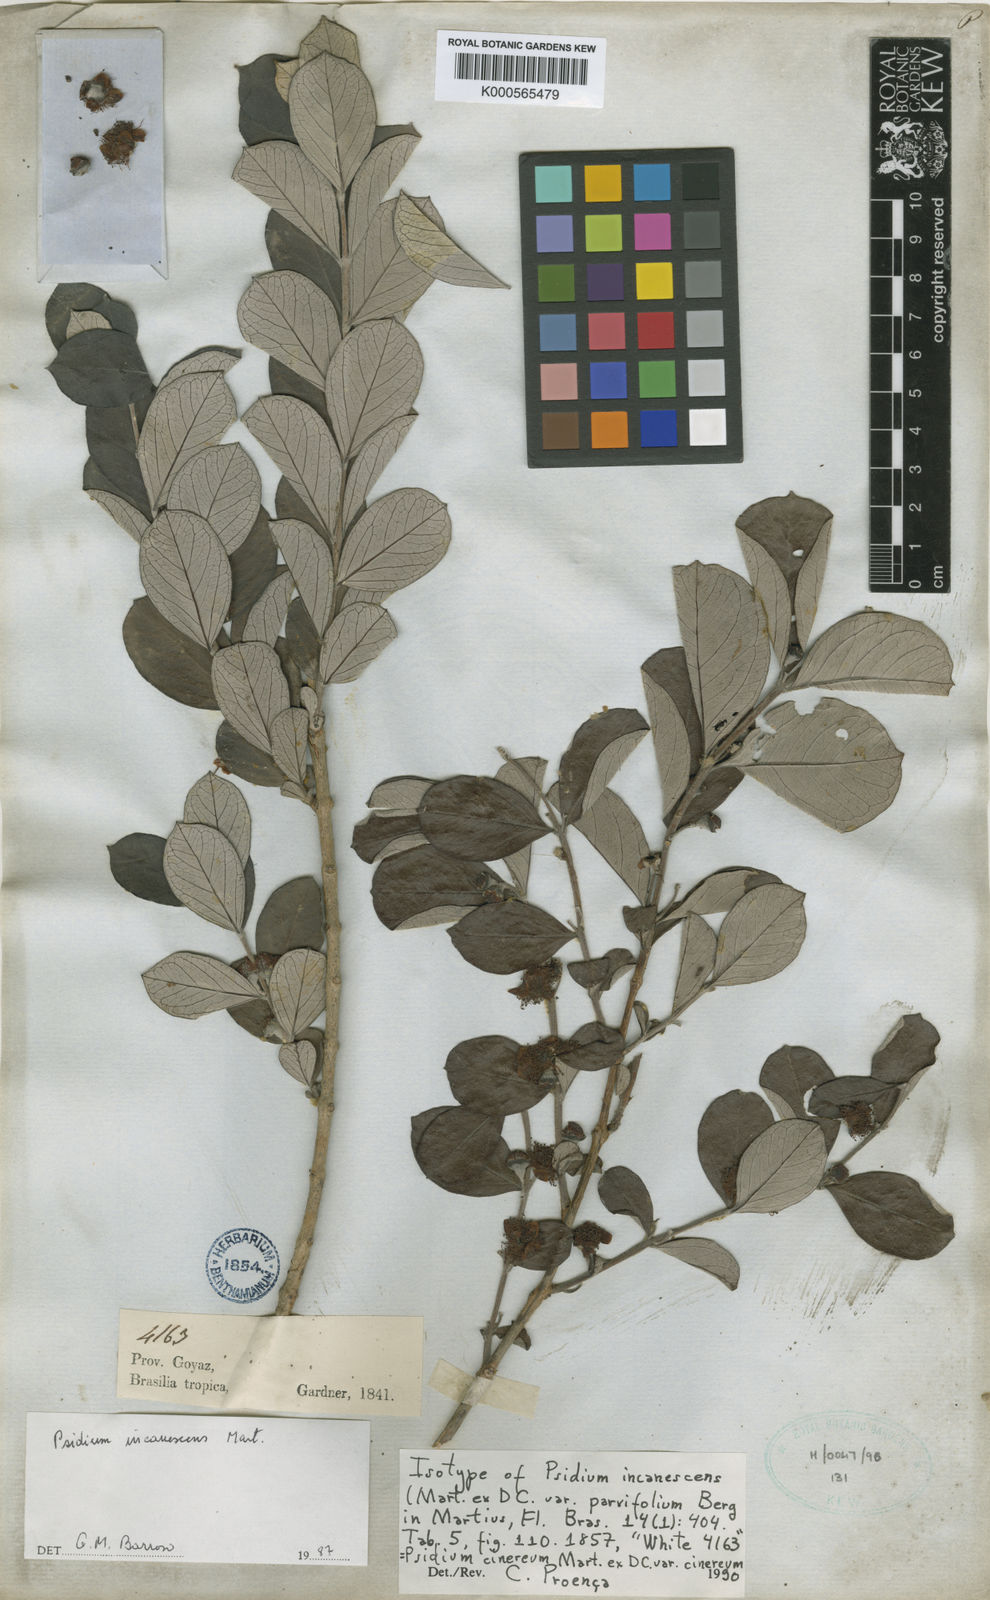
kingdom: Plantae
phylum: Tracheophyta
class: Magnoliopsida
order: Myrtales
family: Myrtaceae
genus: Psidium
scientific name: Psidium grandifolium
